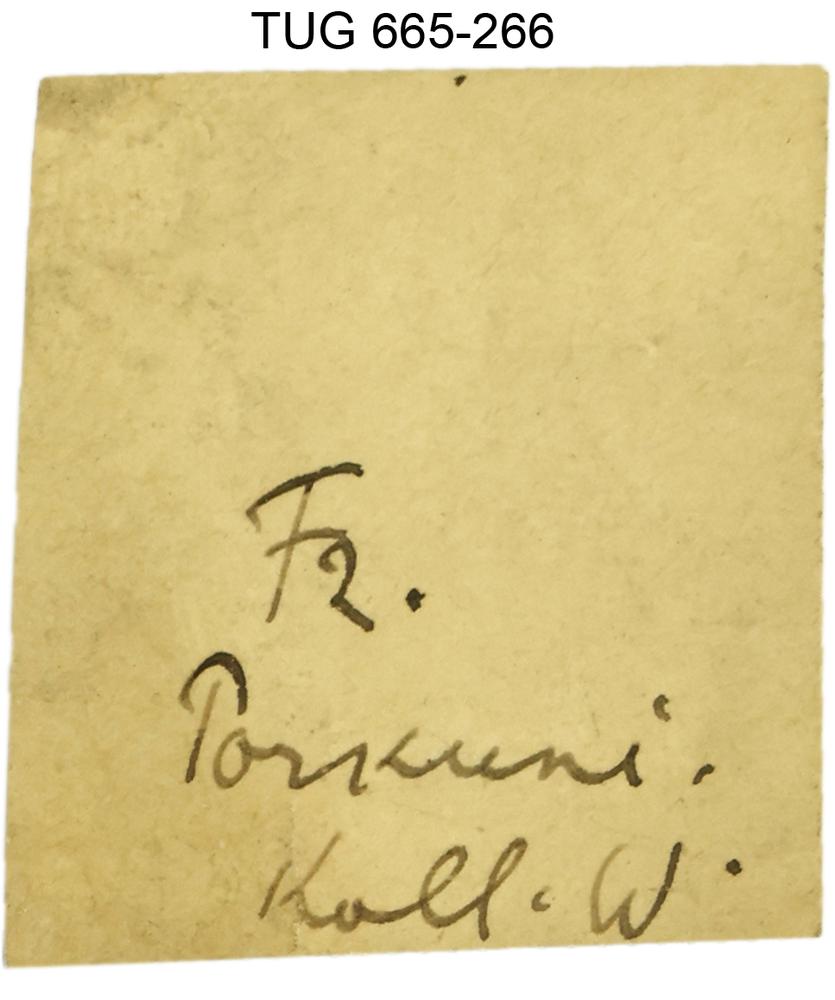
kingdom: Animalia
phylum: Mollusca
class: Gastropoda
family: Helicotomidae
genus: Palaeomphalus
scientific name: Palaeomphalus Euomphalus obtusangulus
